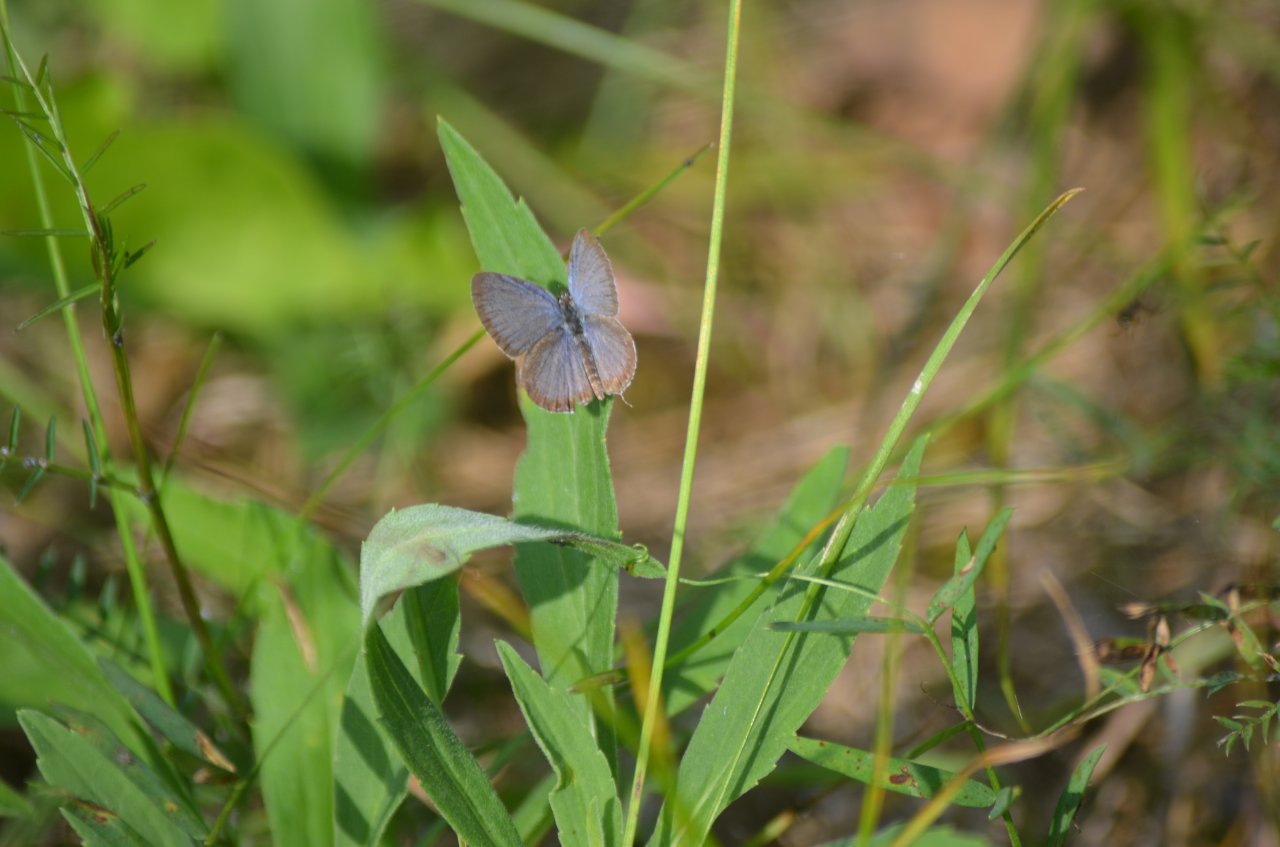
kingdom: Animalia
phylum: Arthropoda
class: Insecta
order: Lepidoptera
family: Lycaenidae
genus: Elkalyce
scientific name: Elkalyce comyntas
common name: Eastern Tailed-Blue
